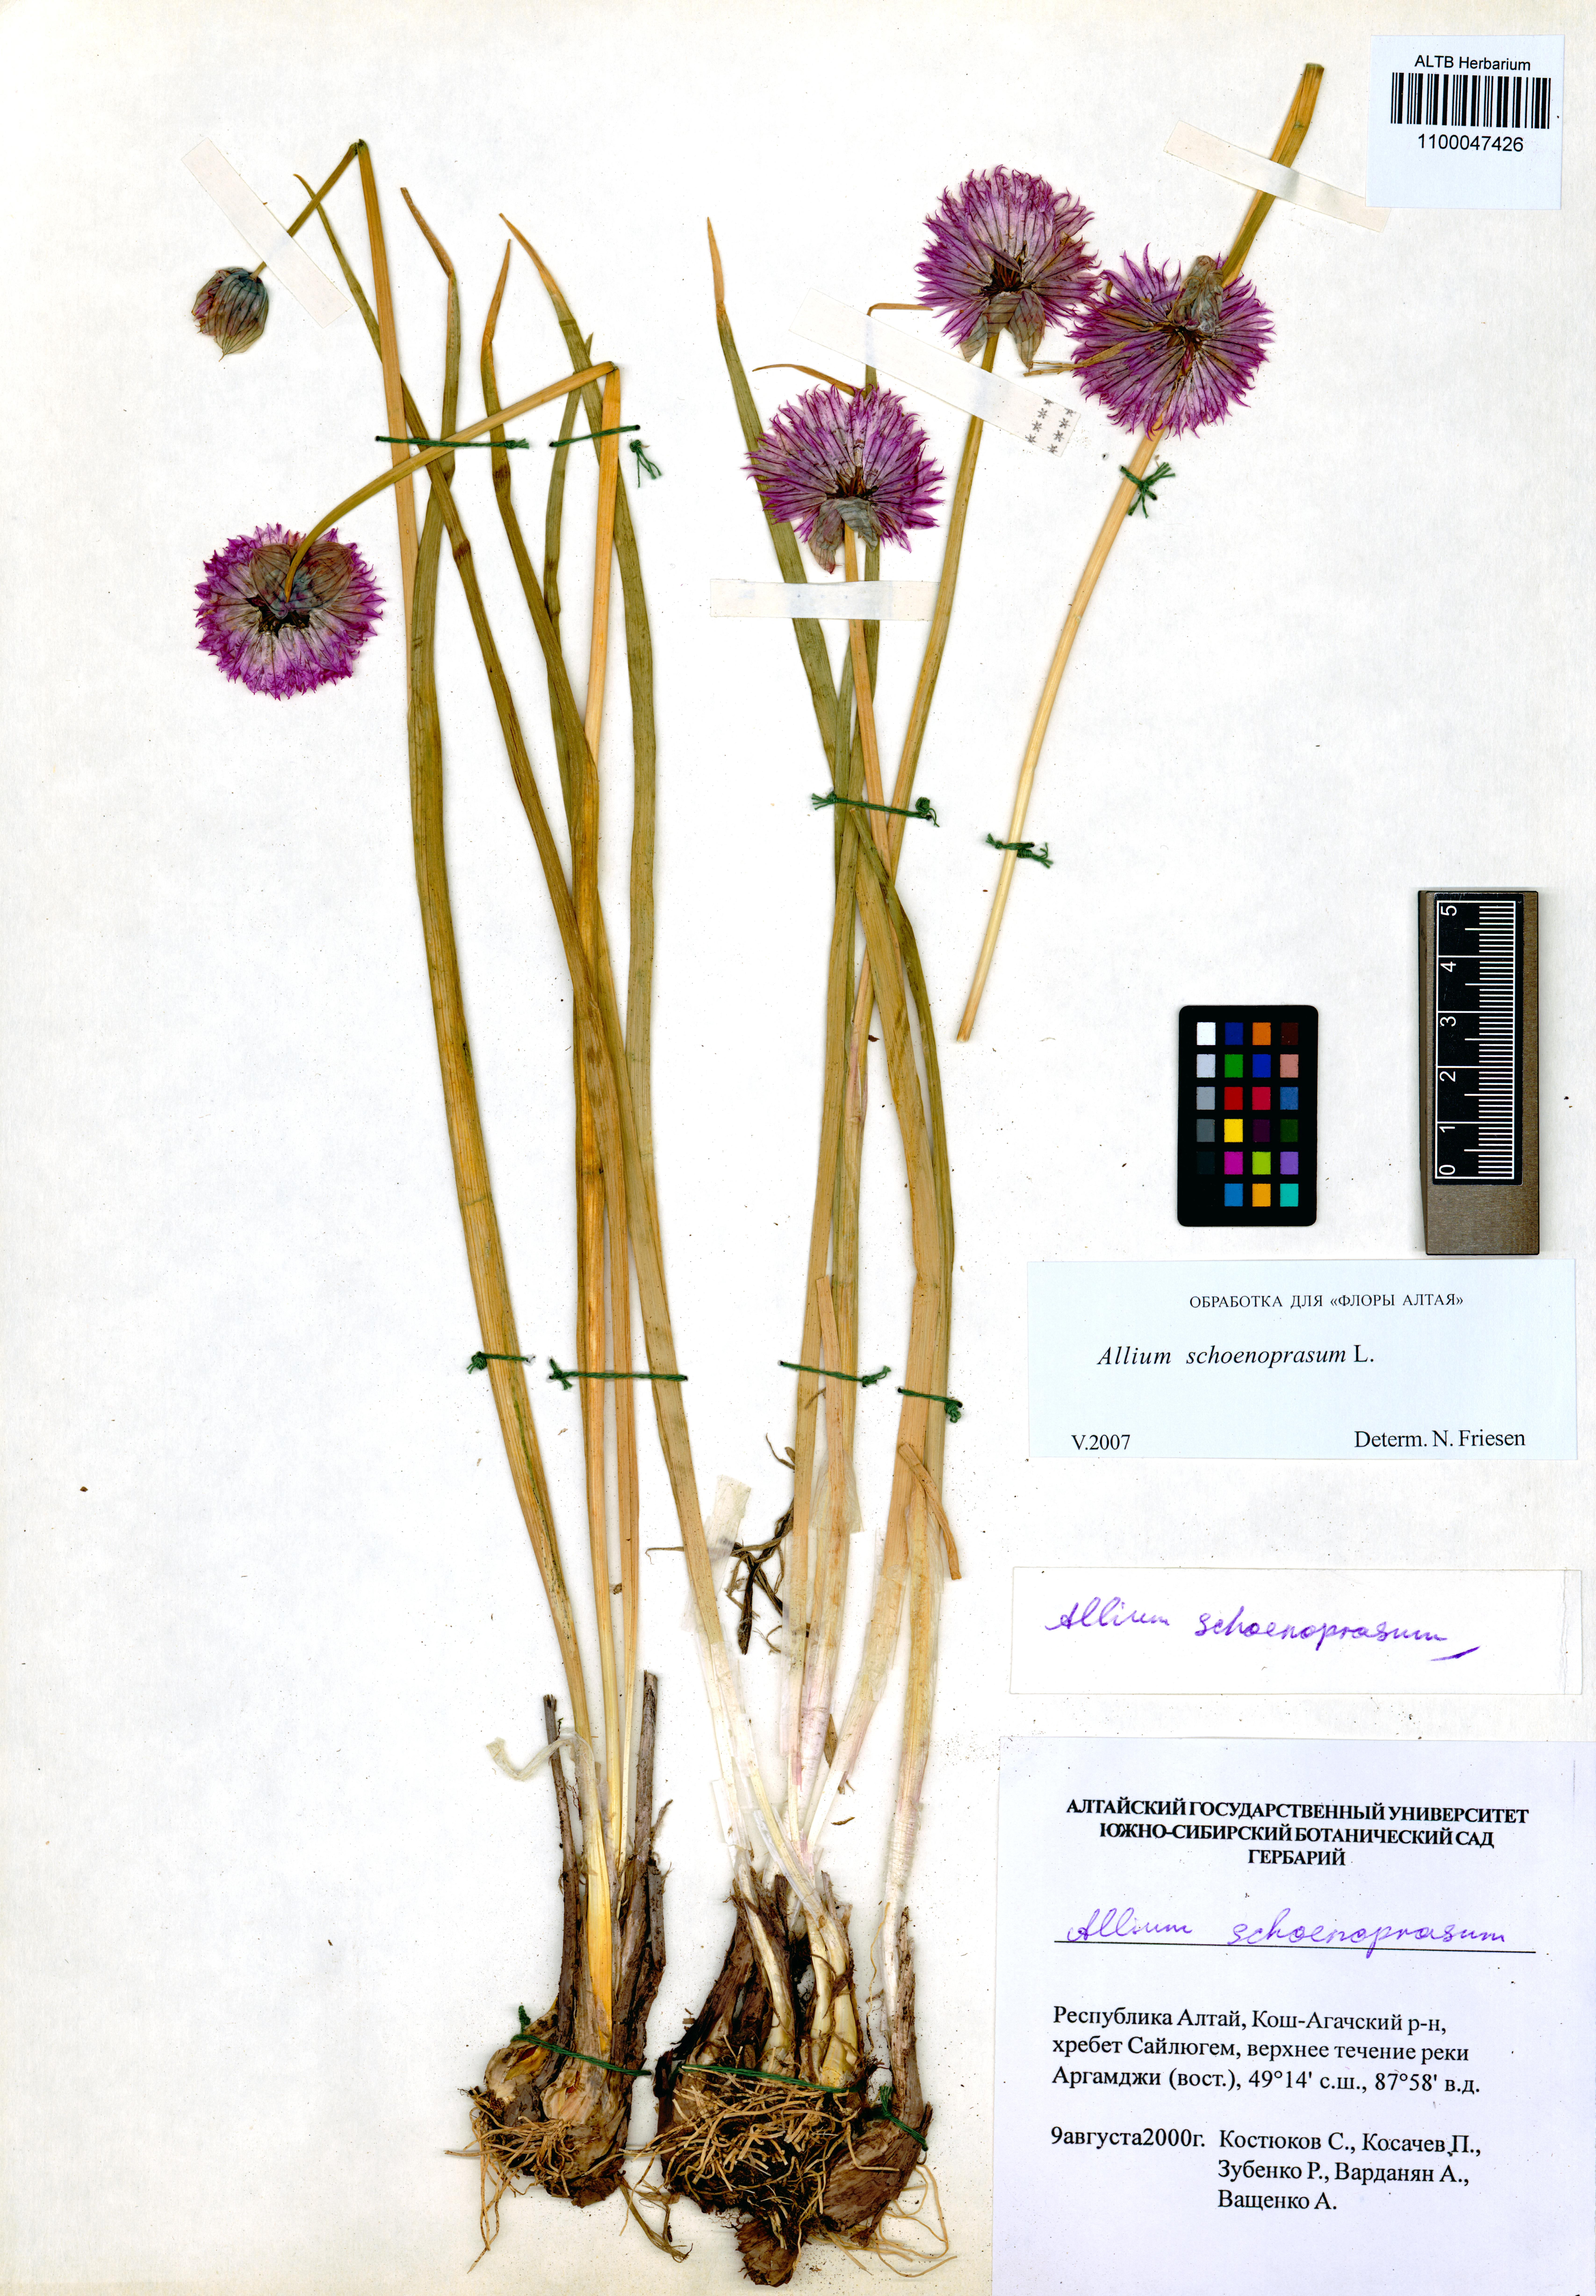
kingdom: Plantae
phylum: Tracheophyta
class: Liliopsida
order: Asparagales
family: Amaryllidaceae
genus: Allium
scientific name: Allium schoenoprasum
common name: Chives
